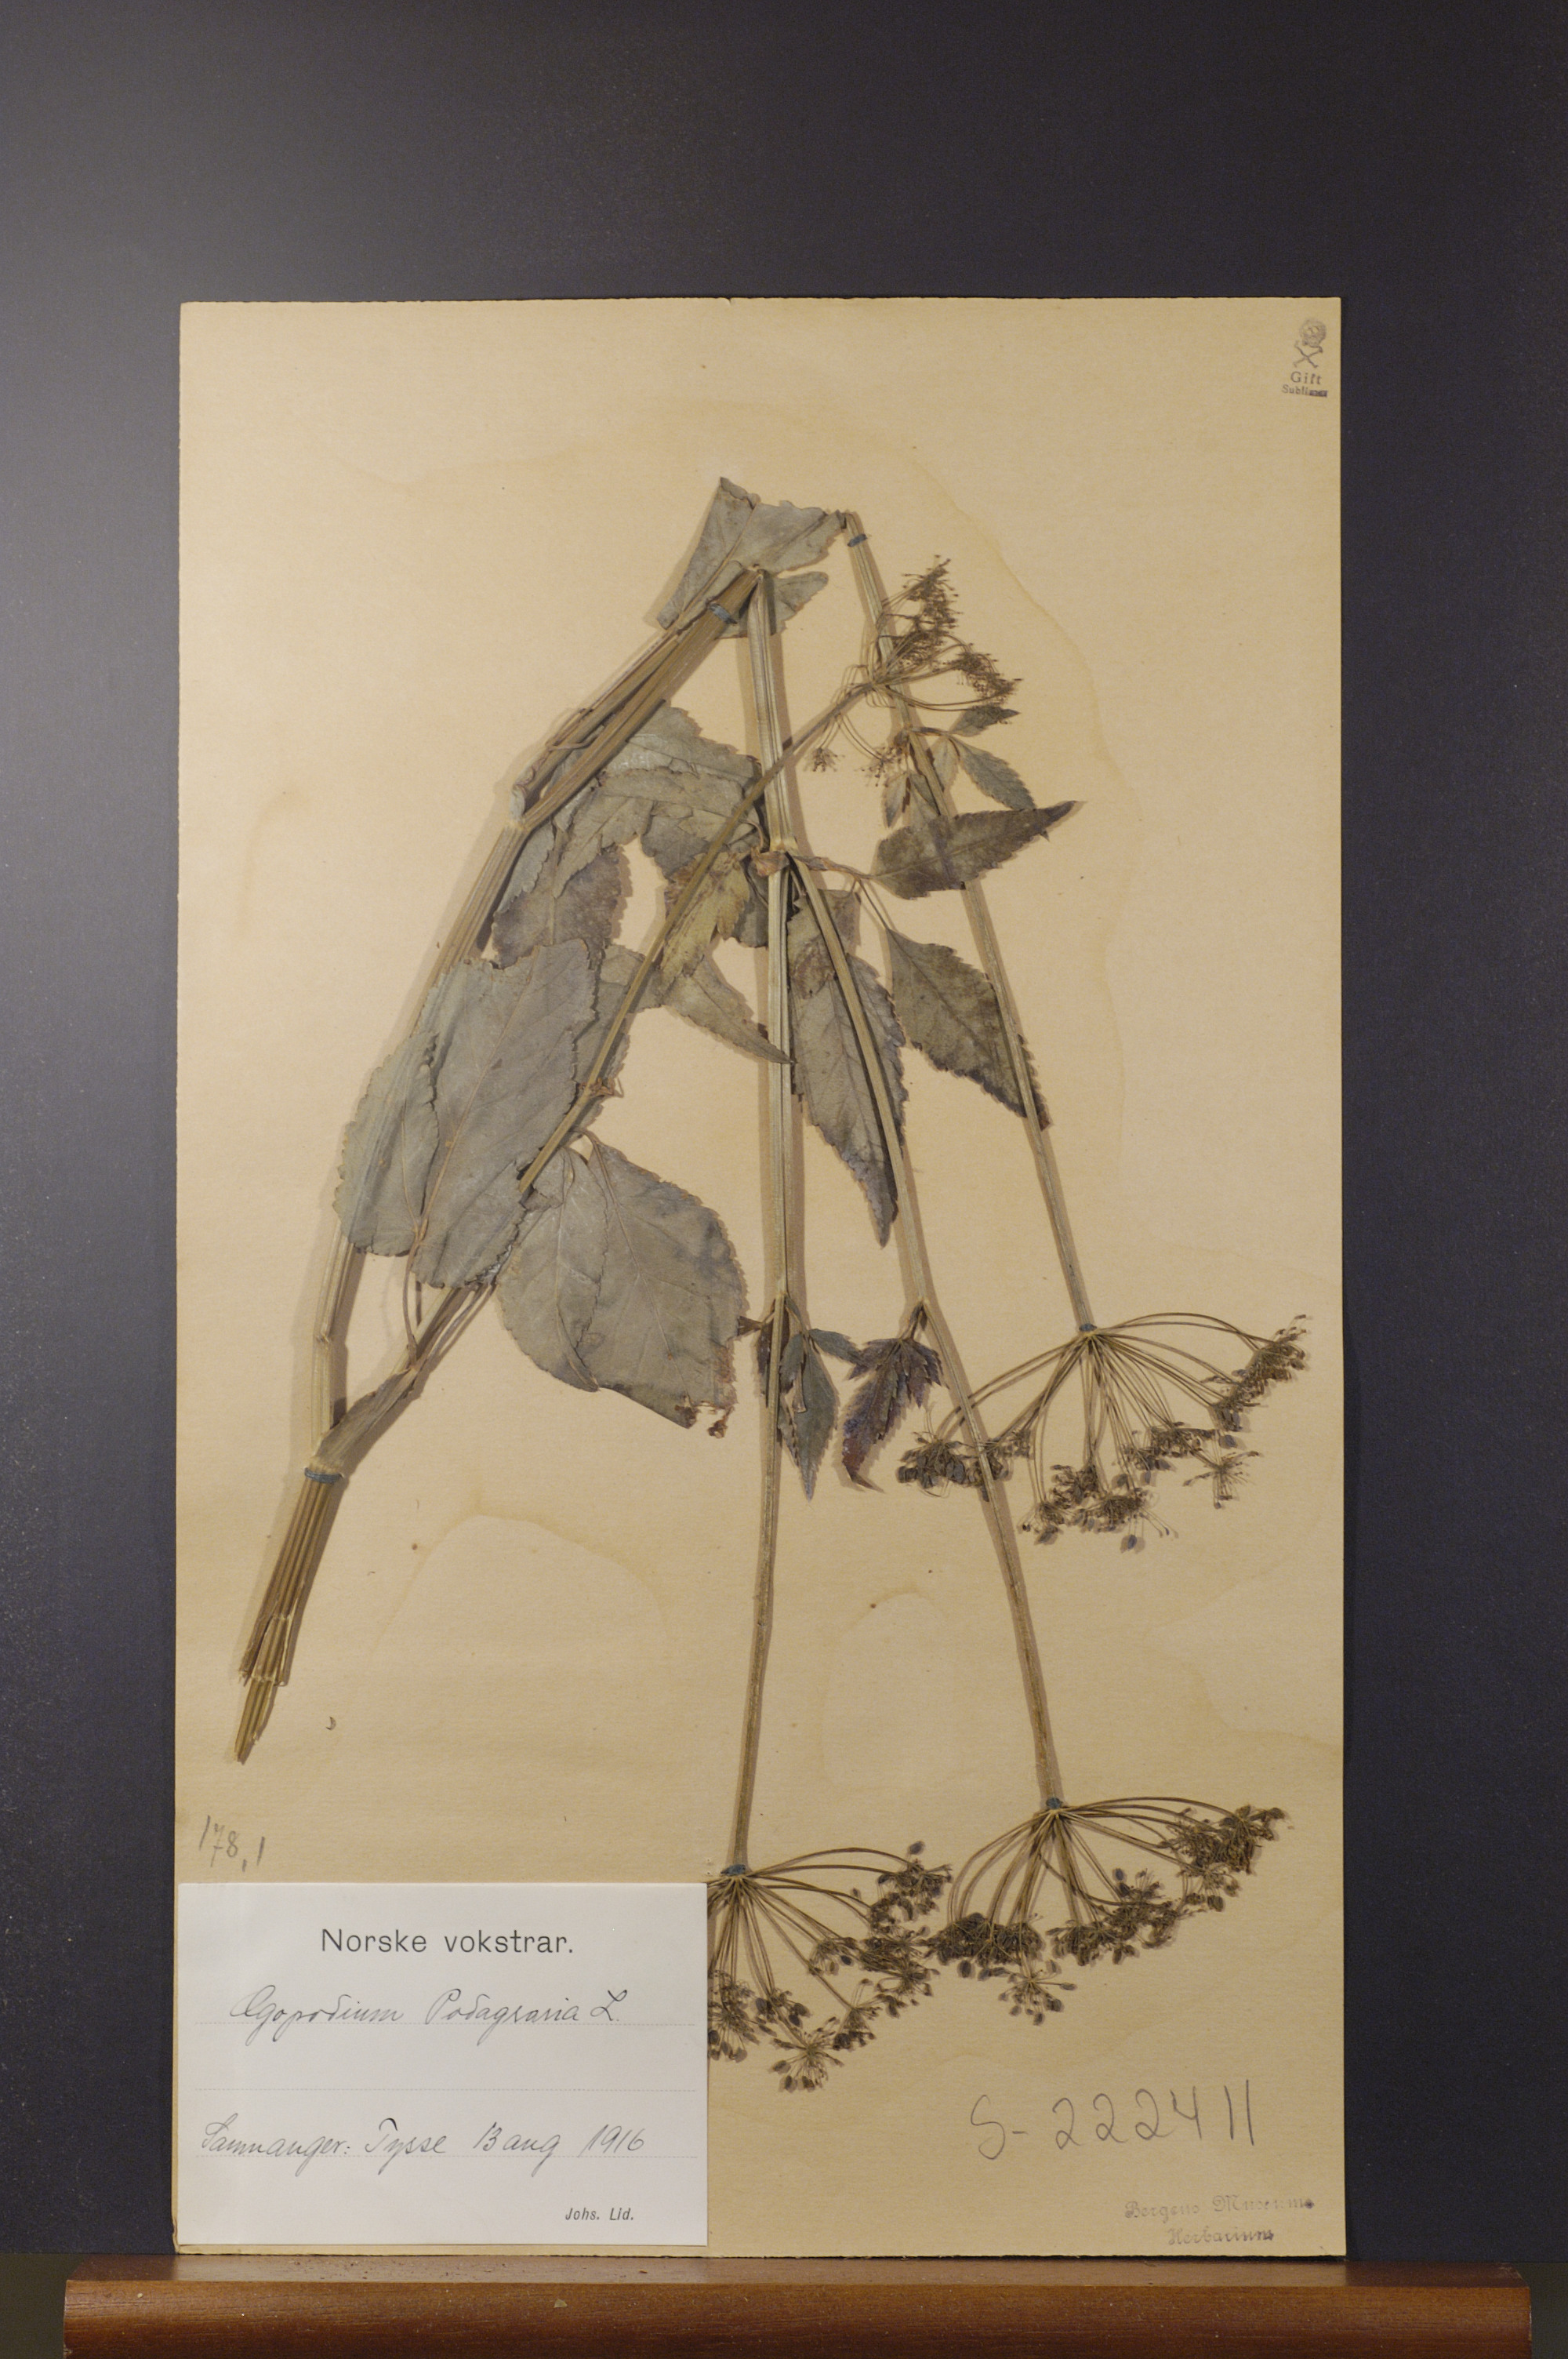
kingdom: Plantae
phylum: Tracheophyta
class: Magnoliopsida
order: Apiales
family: Apiaceae
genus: Aegopodium
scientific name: Aegopodium podagraria
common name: Ground-elder
